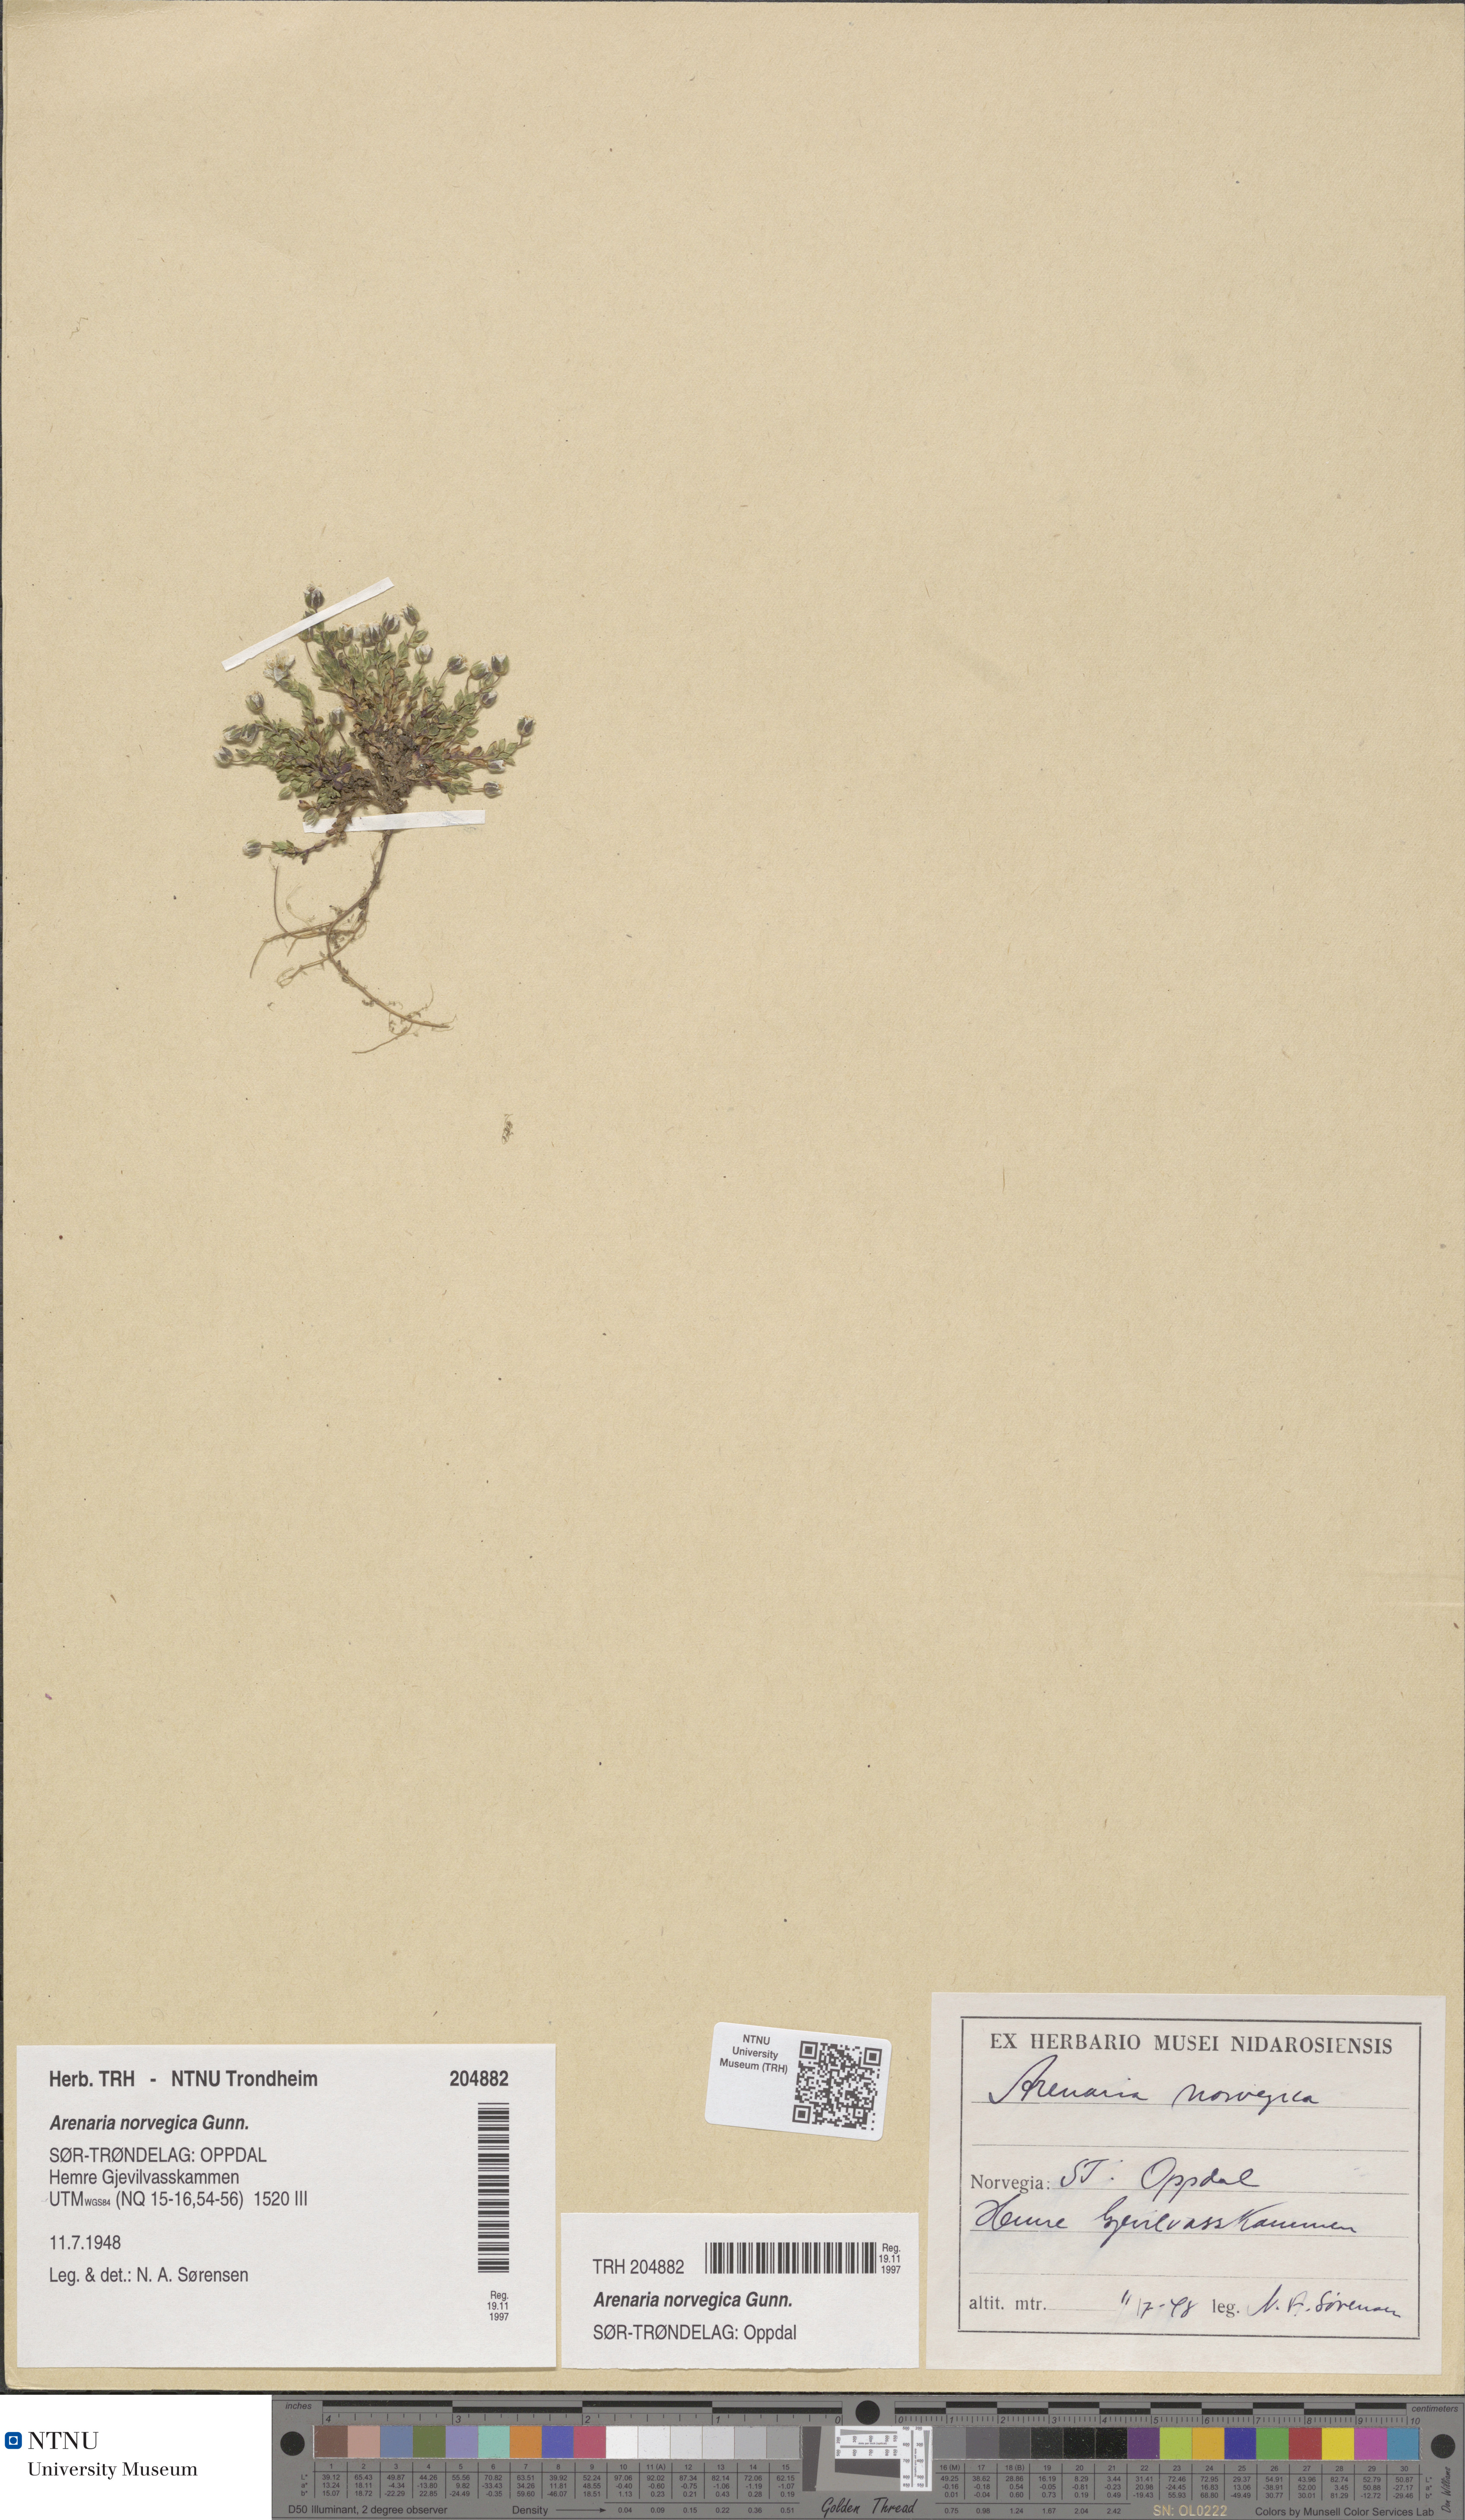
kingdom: Plantae
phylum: Tracheophyta
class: Magnoliopsida
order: Caryophyllales
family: Caryophyllaceae
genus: Arenaria
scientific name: Arenaria norvegica
